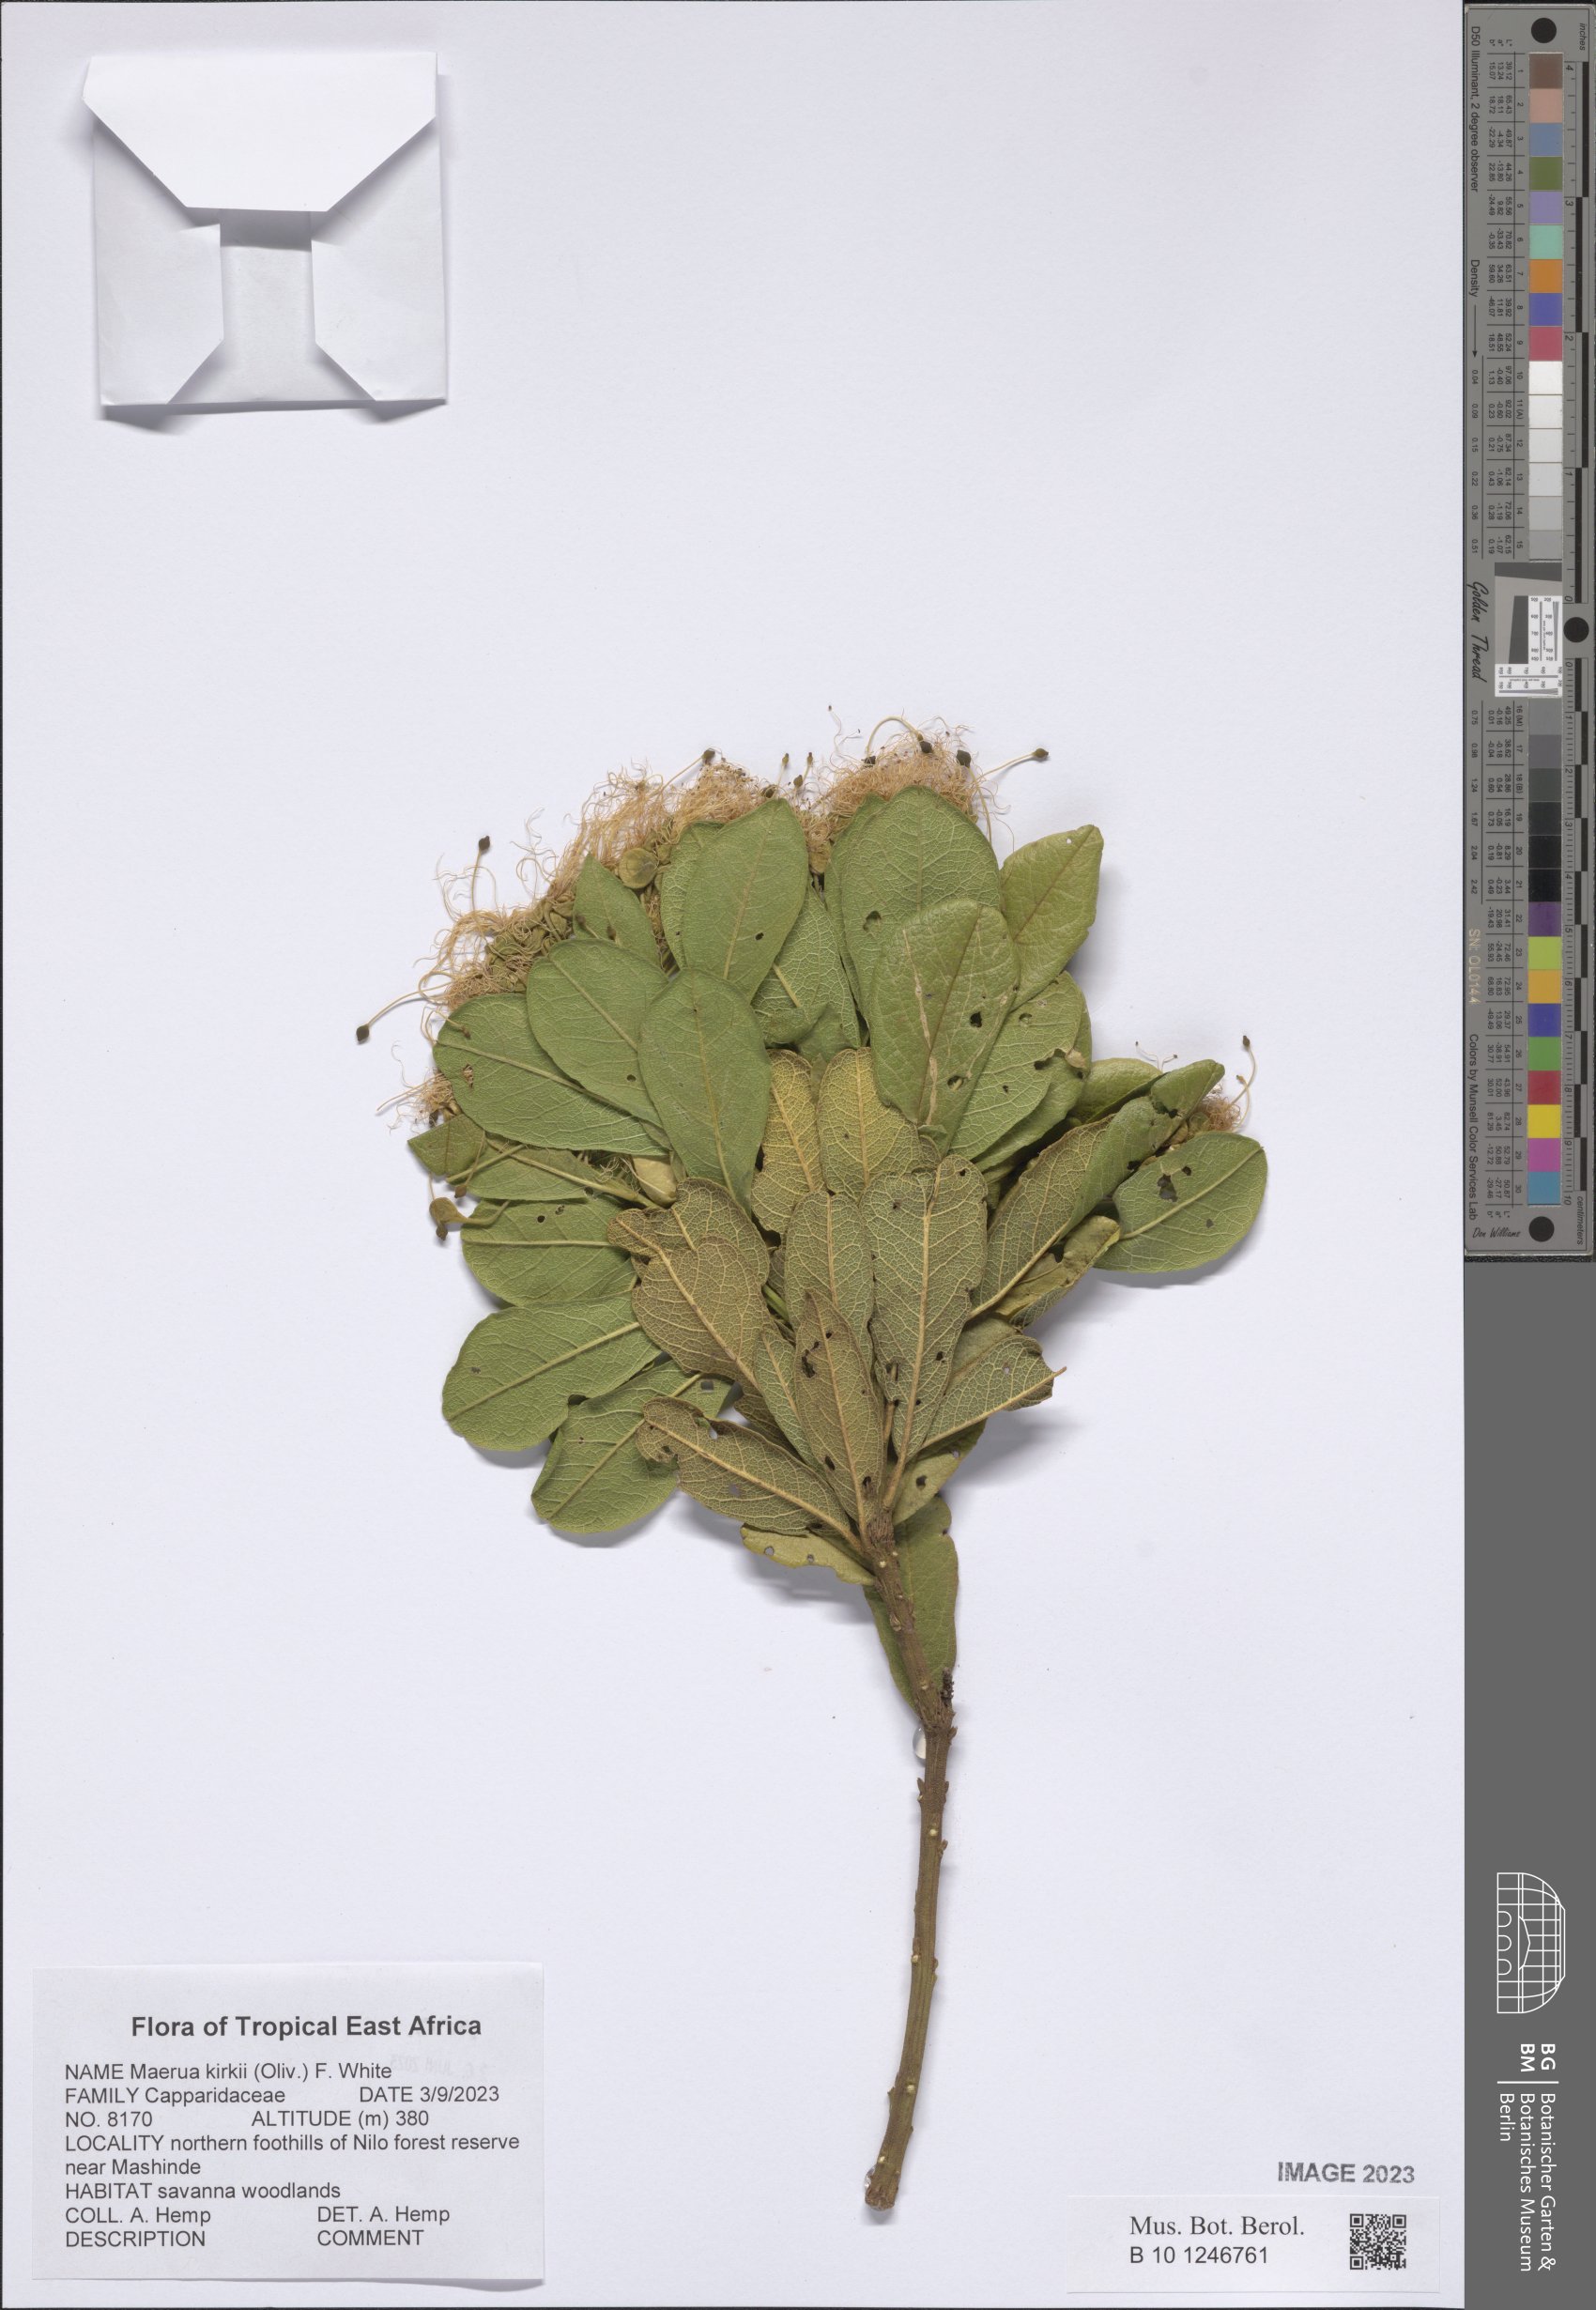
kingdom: Plantae
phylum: Tracheophyta
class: Magnoliopsida
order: Brassicales
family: Capparaceae
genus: Maerua
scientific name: Maerua kirkii
